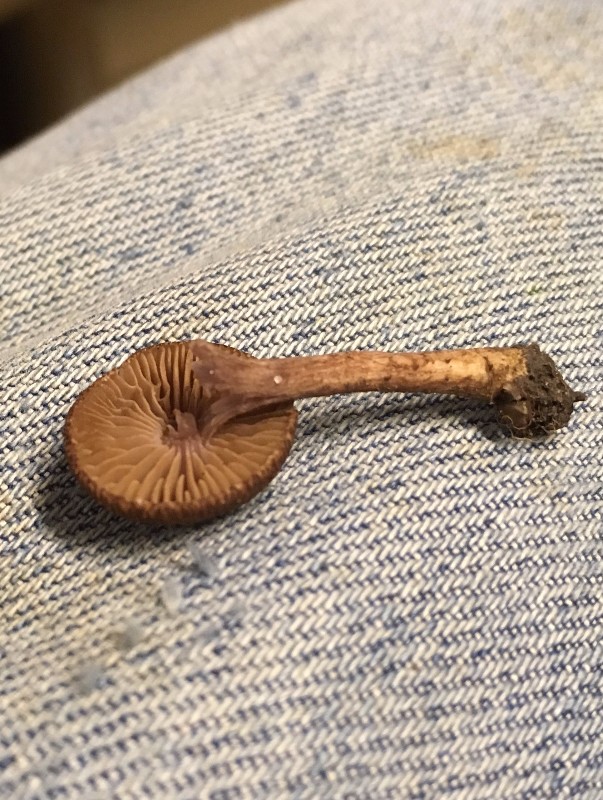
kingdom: Fungi
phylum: Basidiomycota
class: Agaricomycetes
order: Agaricales
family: Inocybaceae
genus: Inocybe
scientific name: Inocybe
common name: trævlhat
